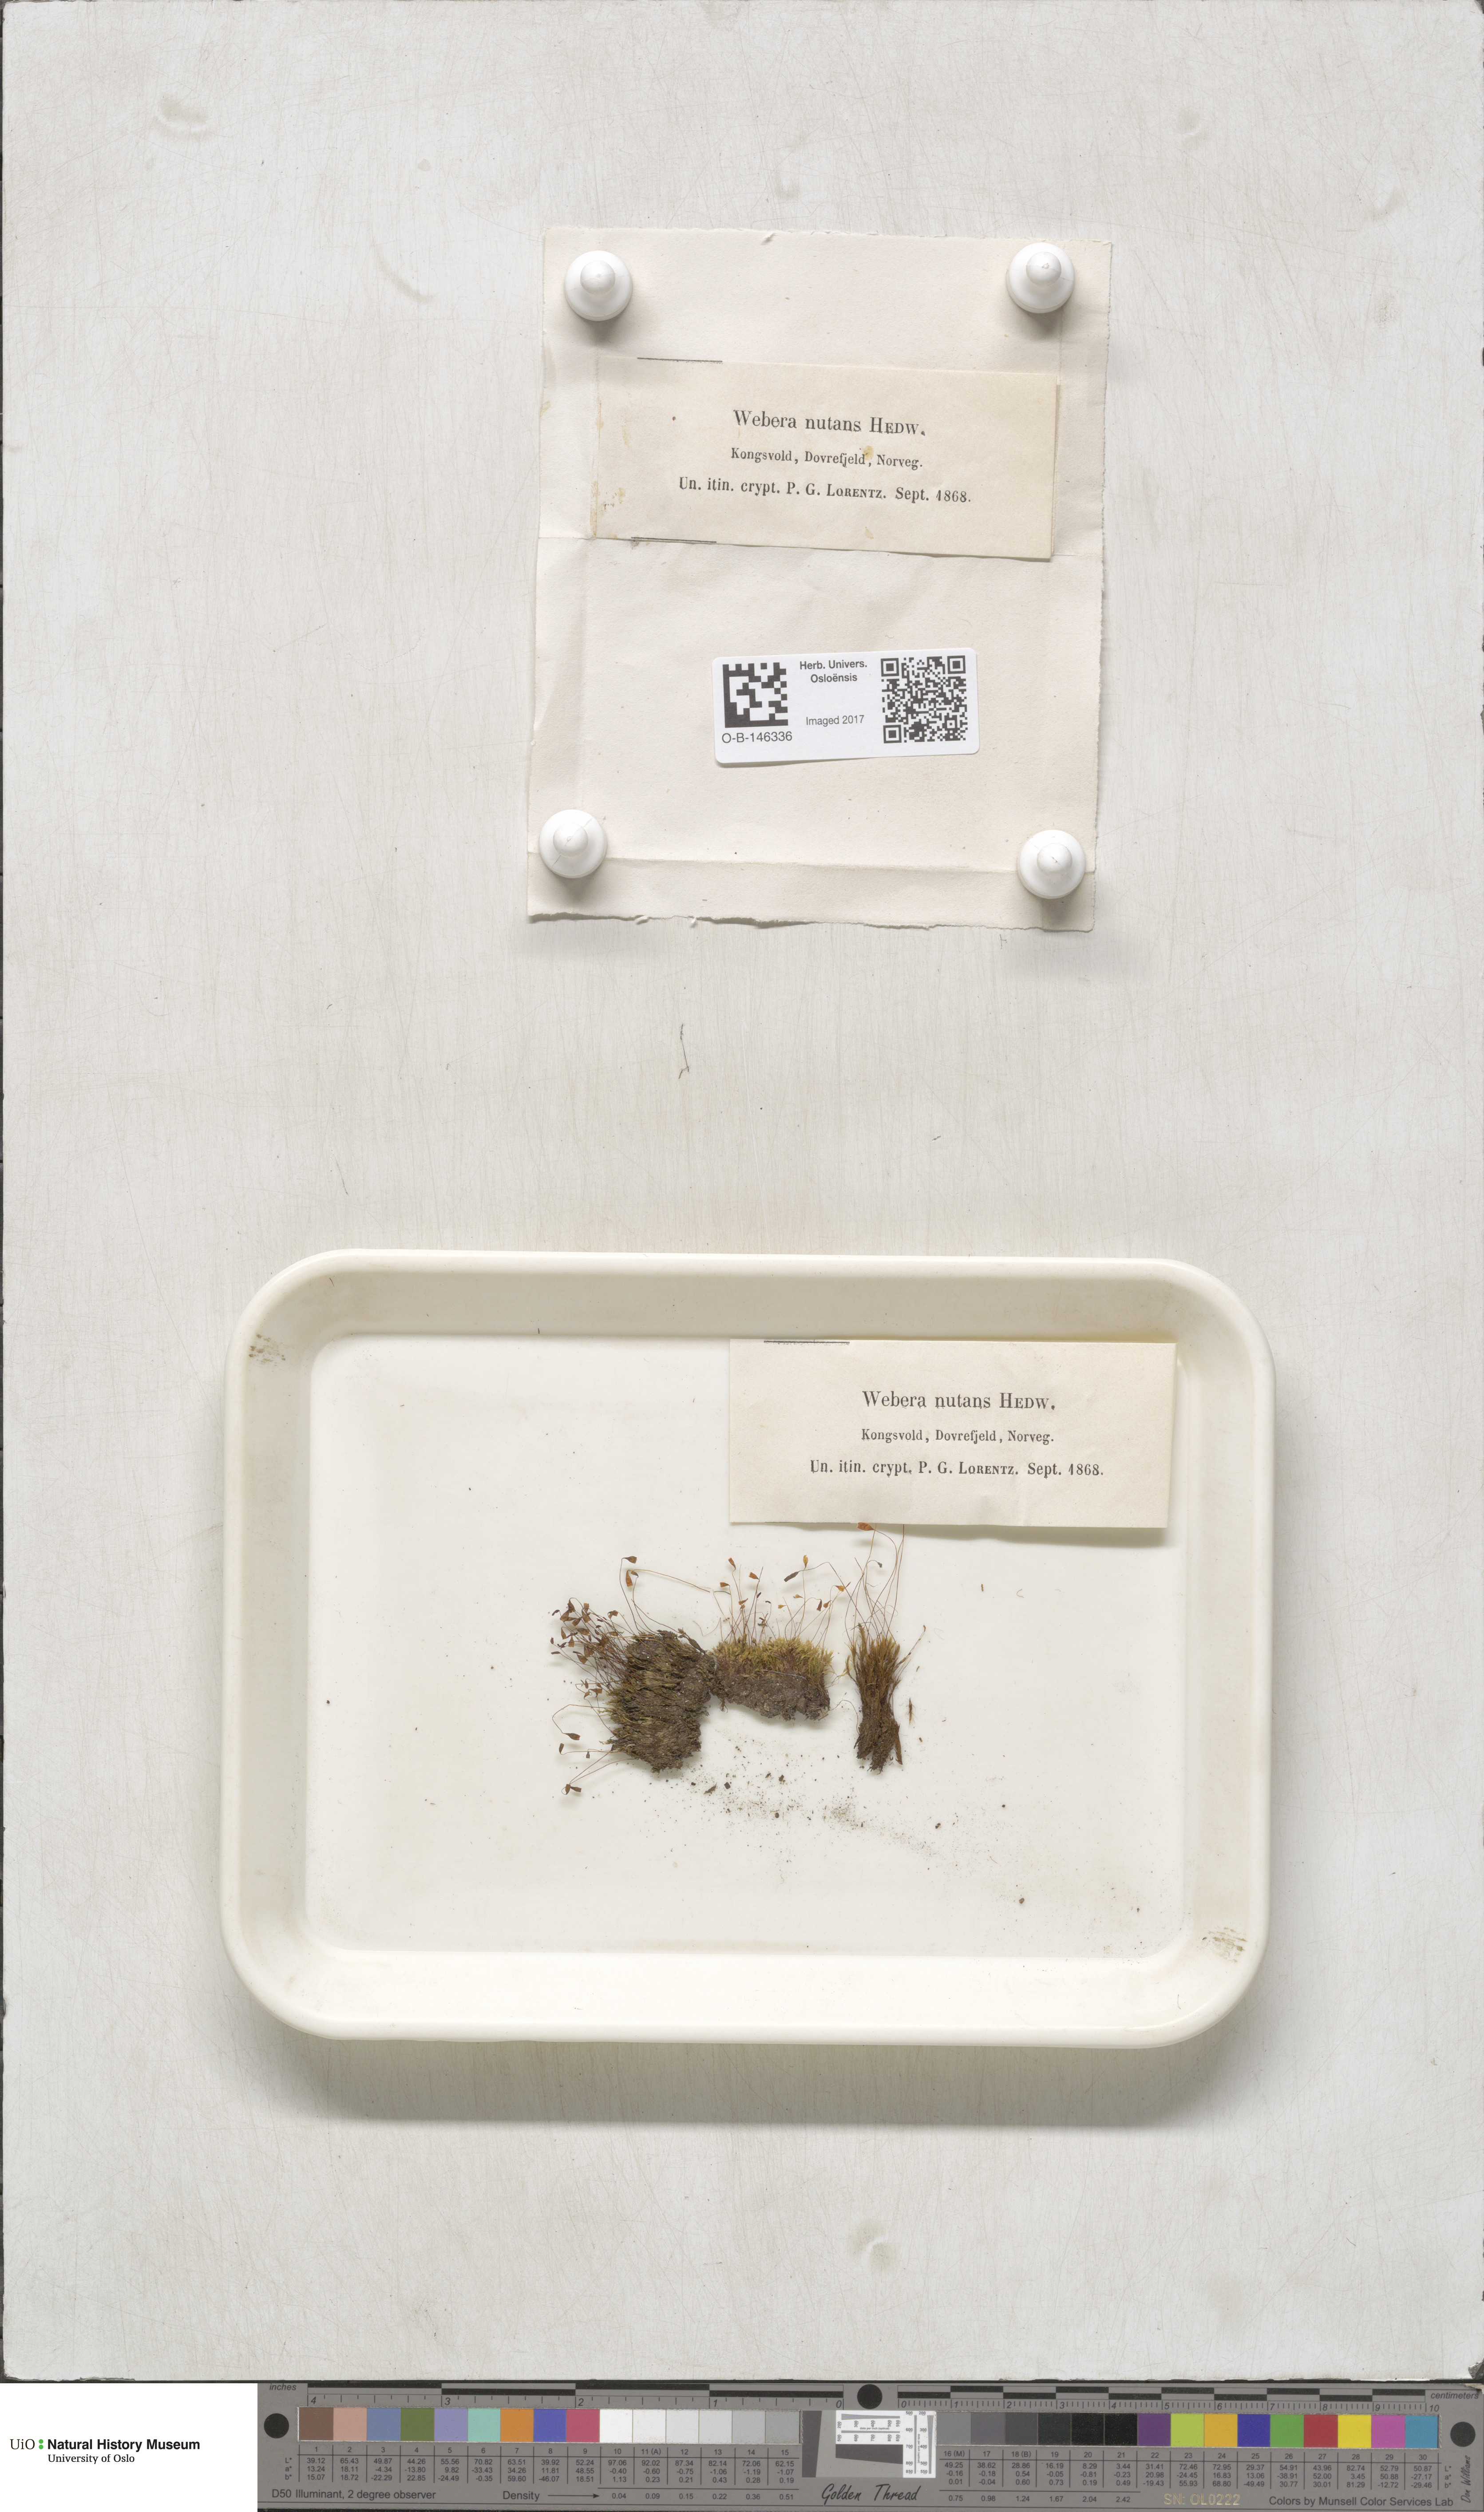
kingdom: Plantae
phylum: Bryophyta
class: Bryopsida
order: Bryales
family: Mniaceae
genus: Pohlia
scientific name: Pohlia nutans
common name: Nodding thread-moss
